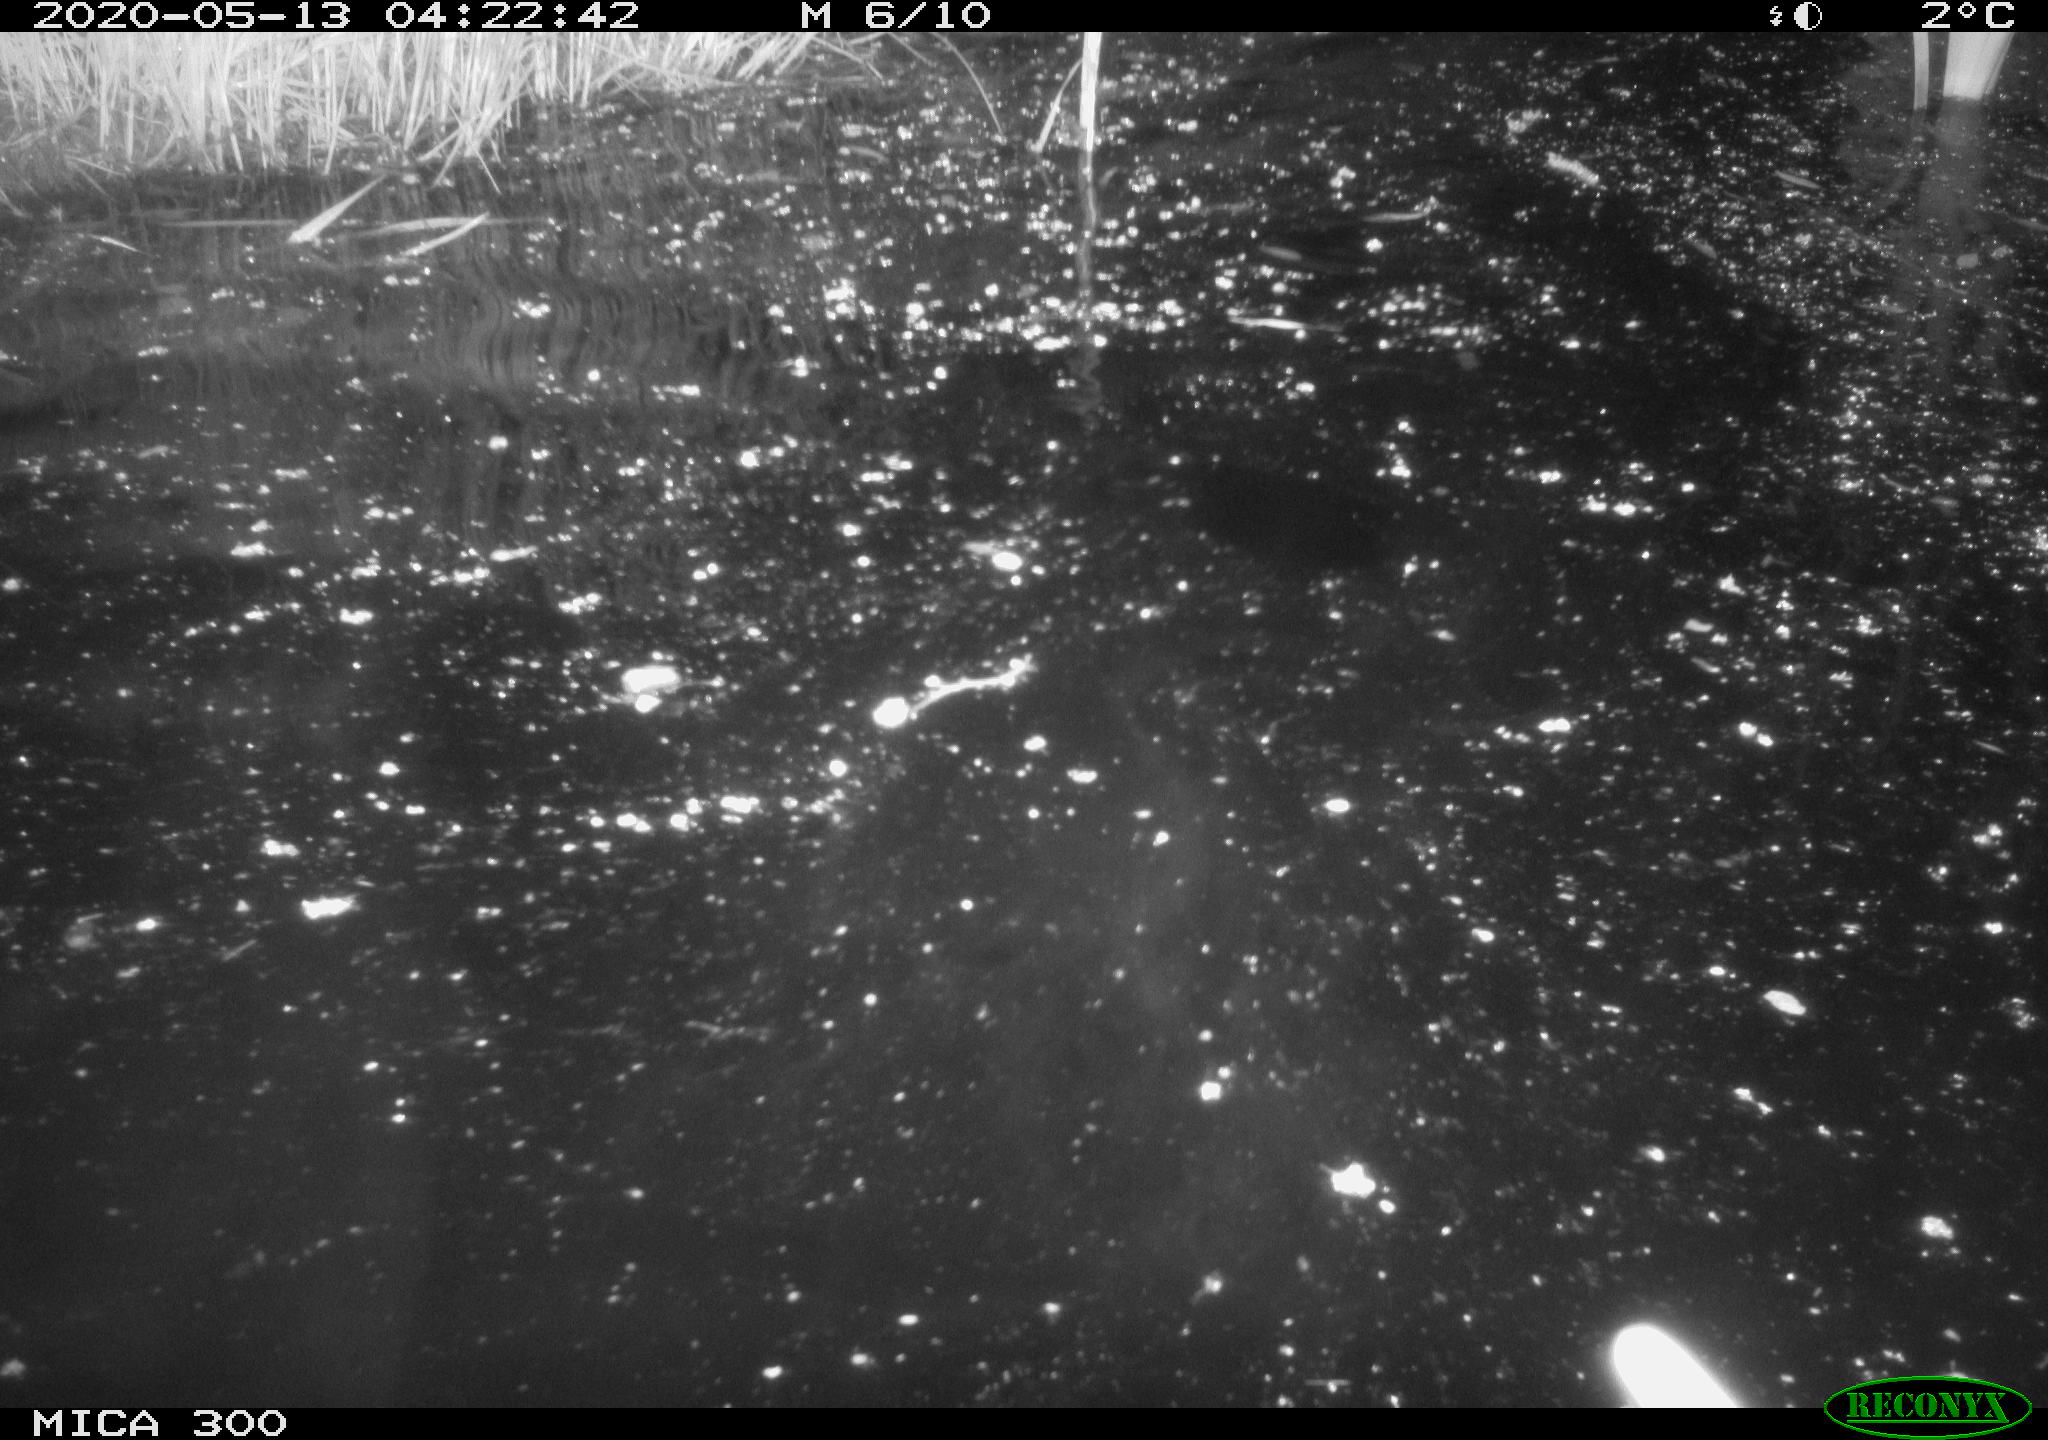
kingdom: Animalia
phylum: Chordata
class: Mammalia
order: Rodentia
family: Castoridae
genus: Castor
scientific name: Castor fiber
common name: Eurasian beaver
